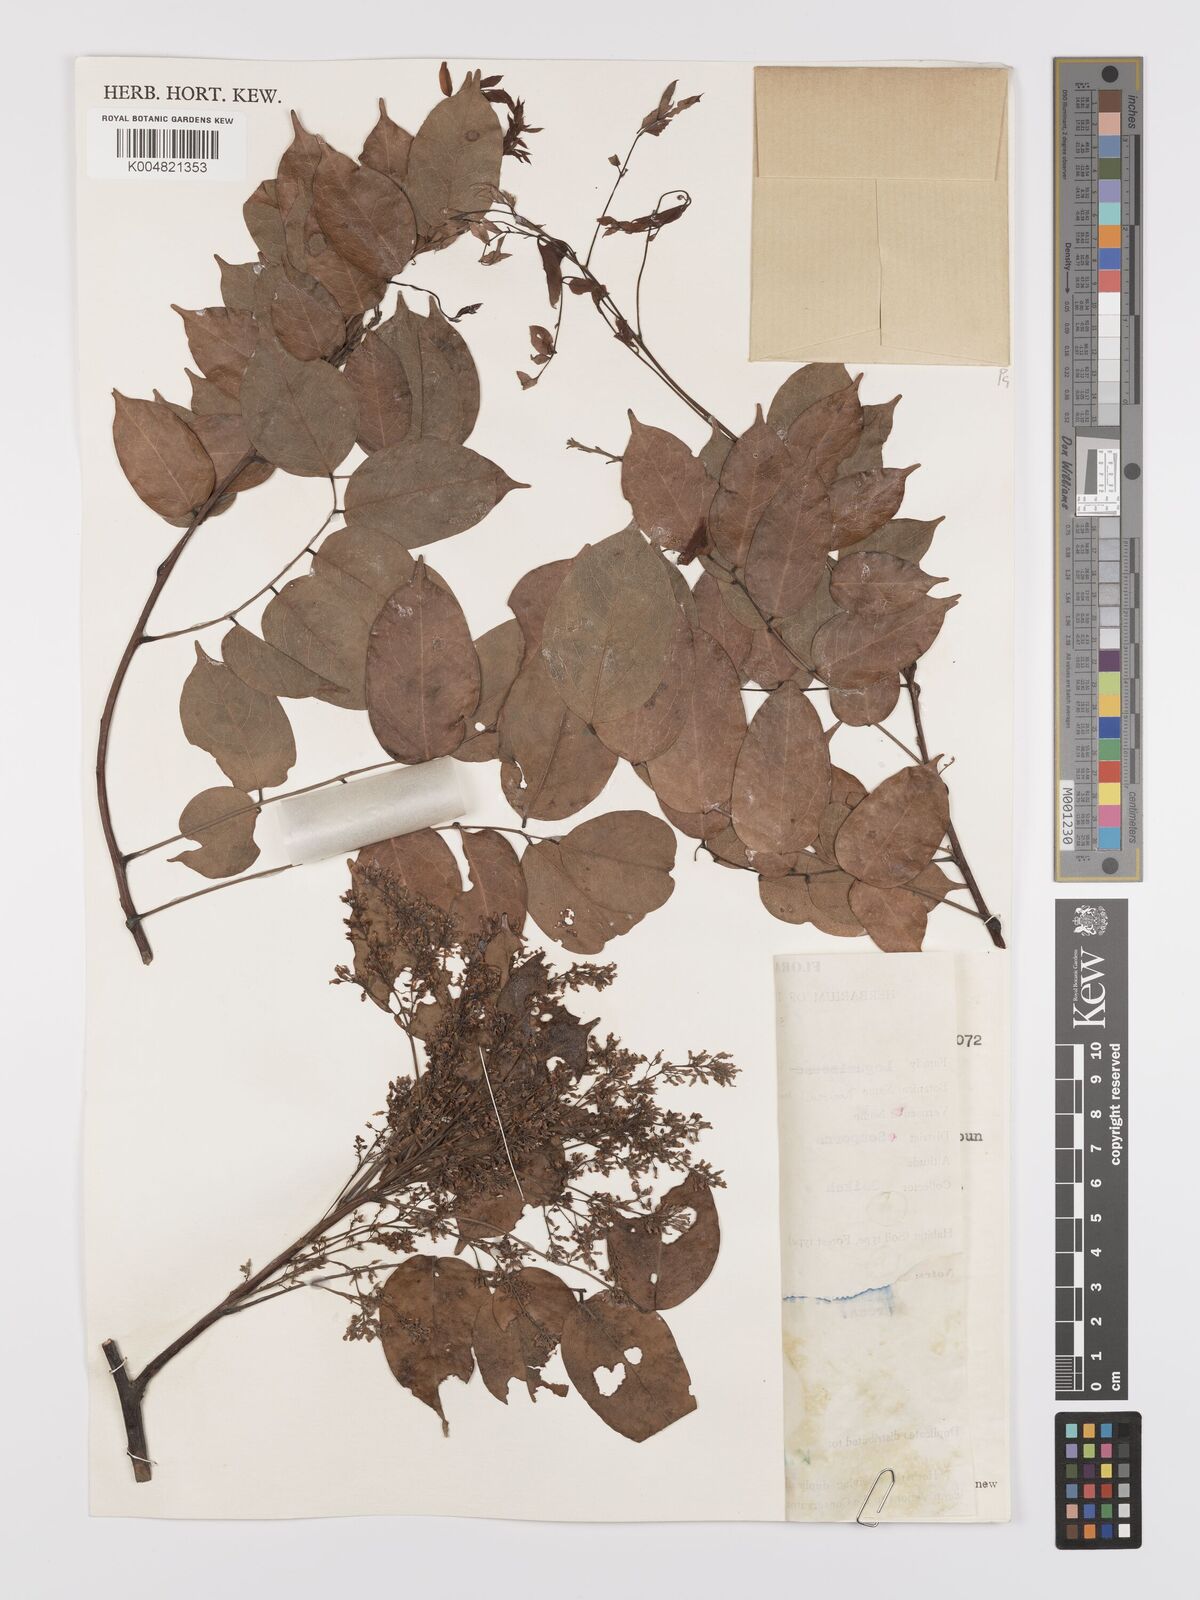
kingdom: Plantae
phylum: Tracheophyta
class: Magnoliopsida
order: Oxalidales
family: Connaraceae
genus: Rourea
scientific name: Rourea minor
